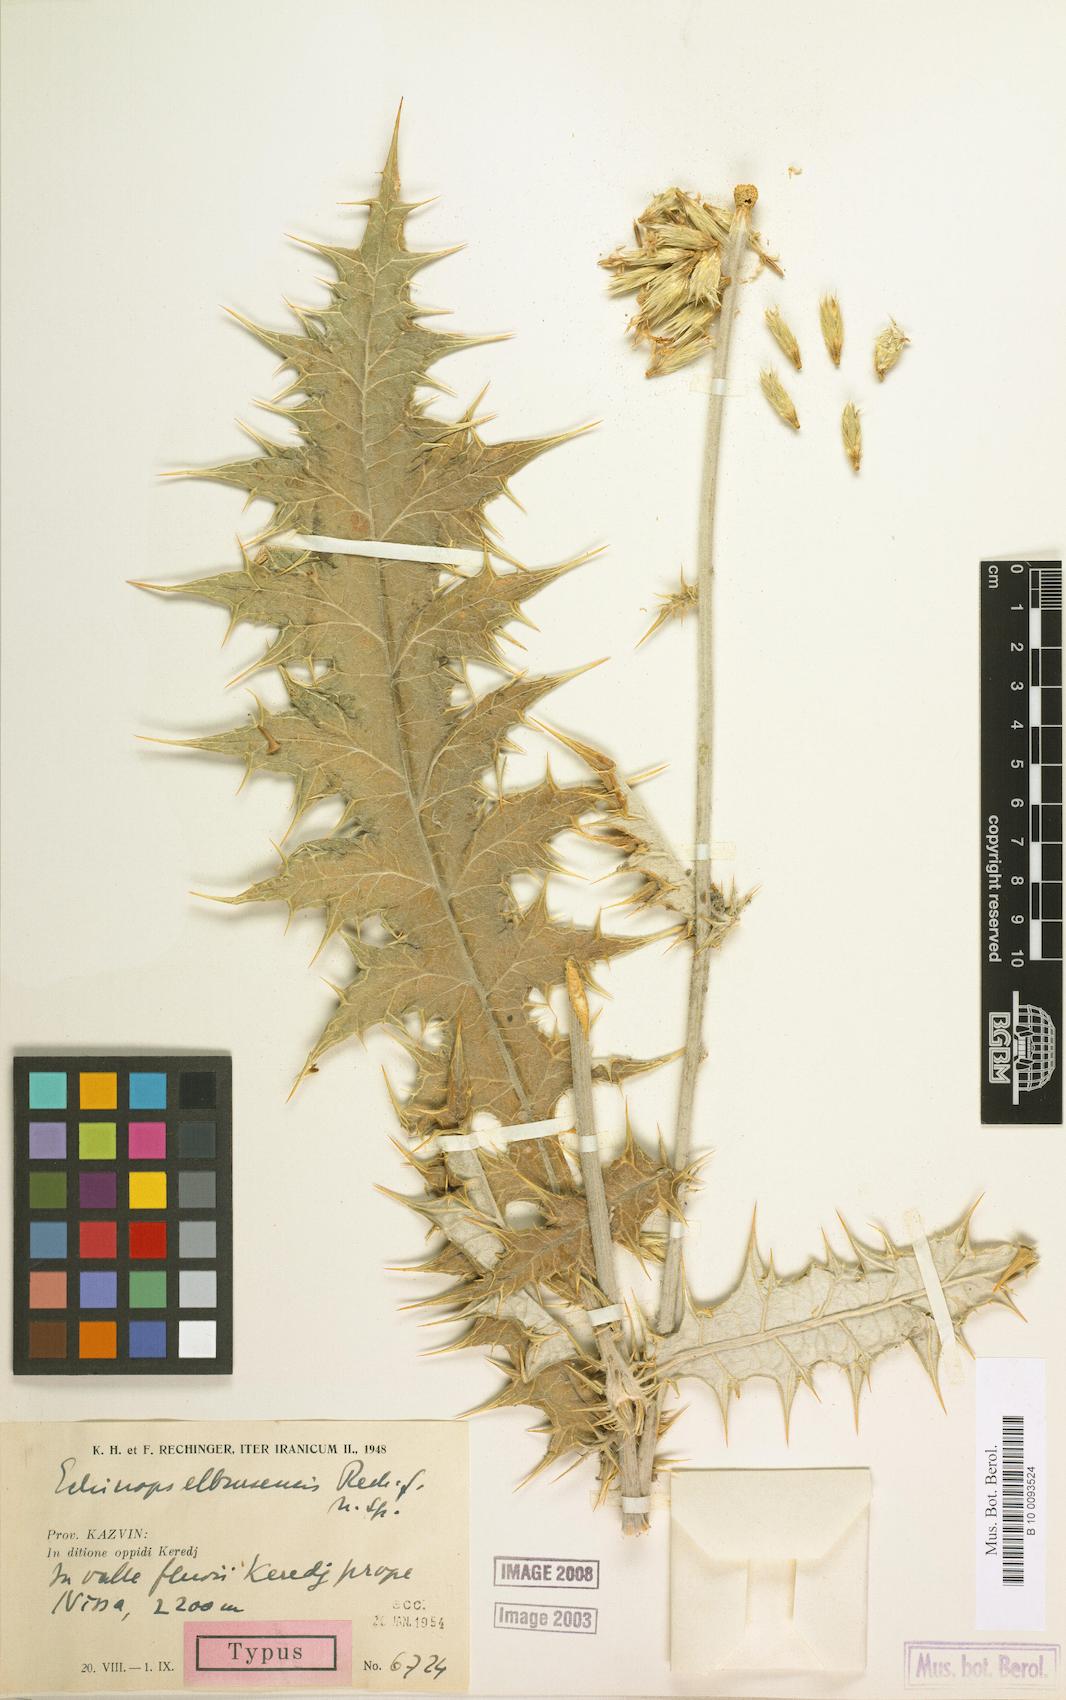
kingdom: Plantae
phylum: Tracheophyta
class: Magnoliopsida
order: Asterales
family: Asteraceae
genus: Echinops
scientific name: Echinops ritro
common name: Globe thistle
